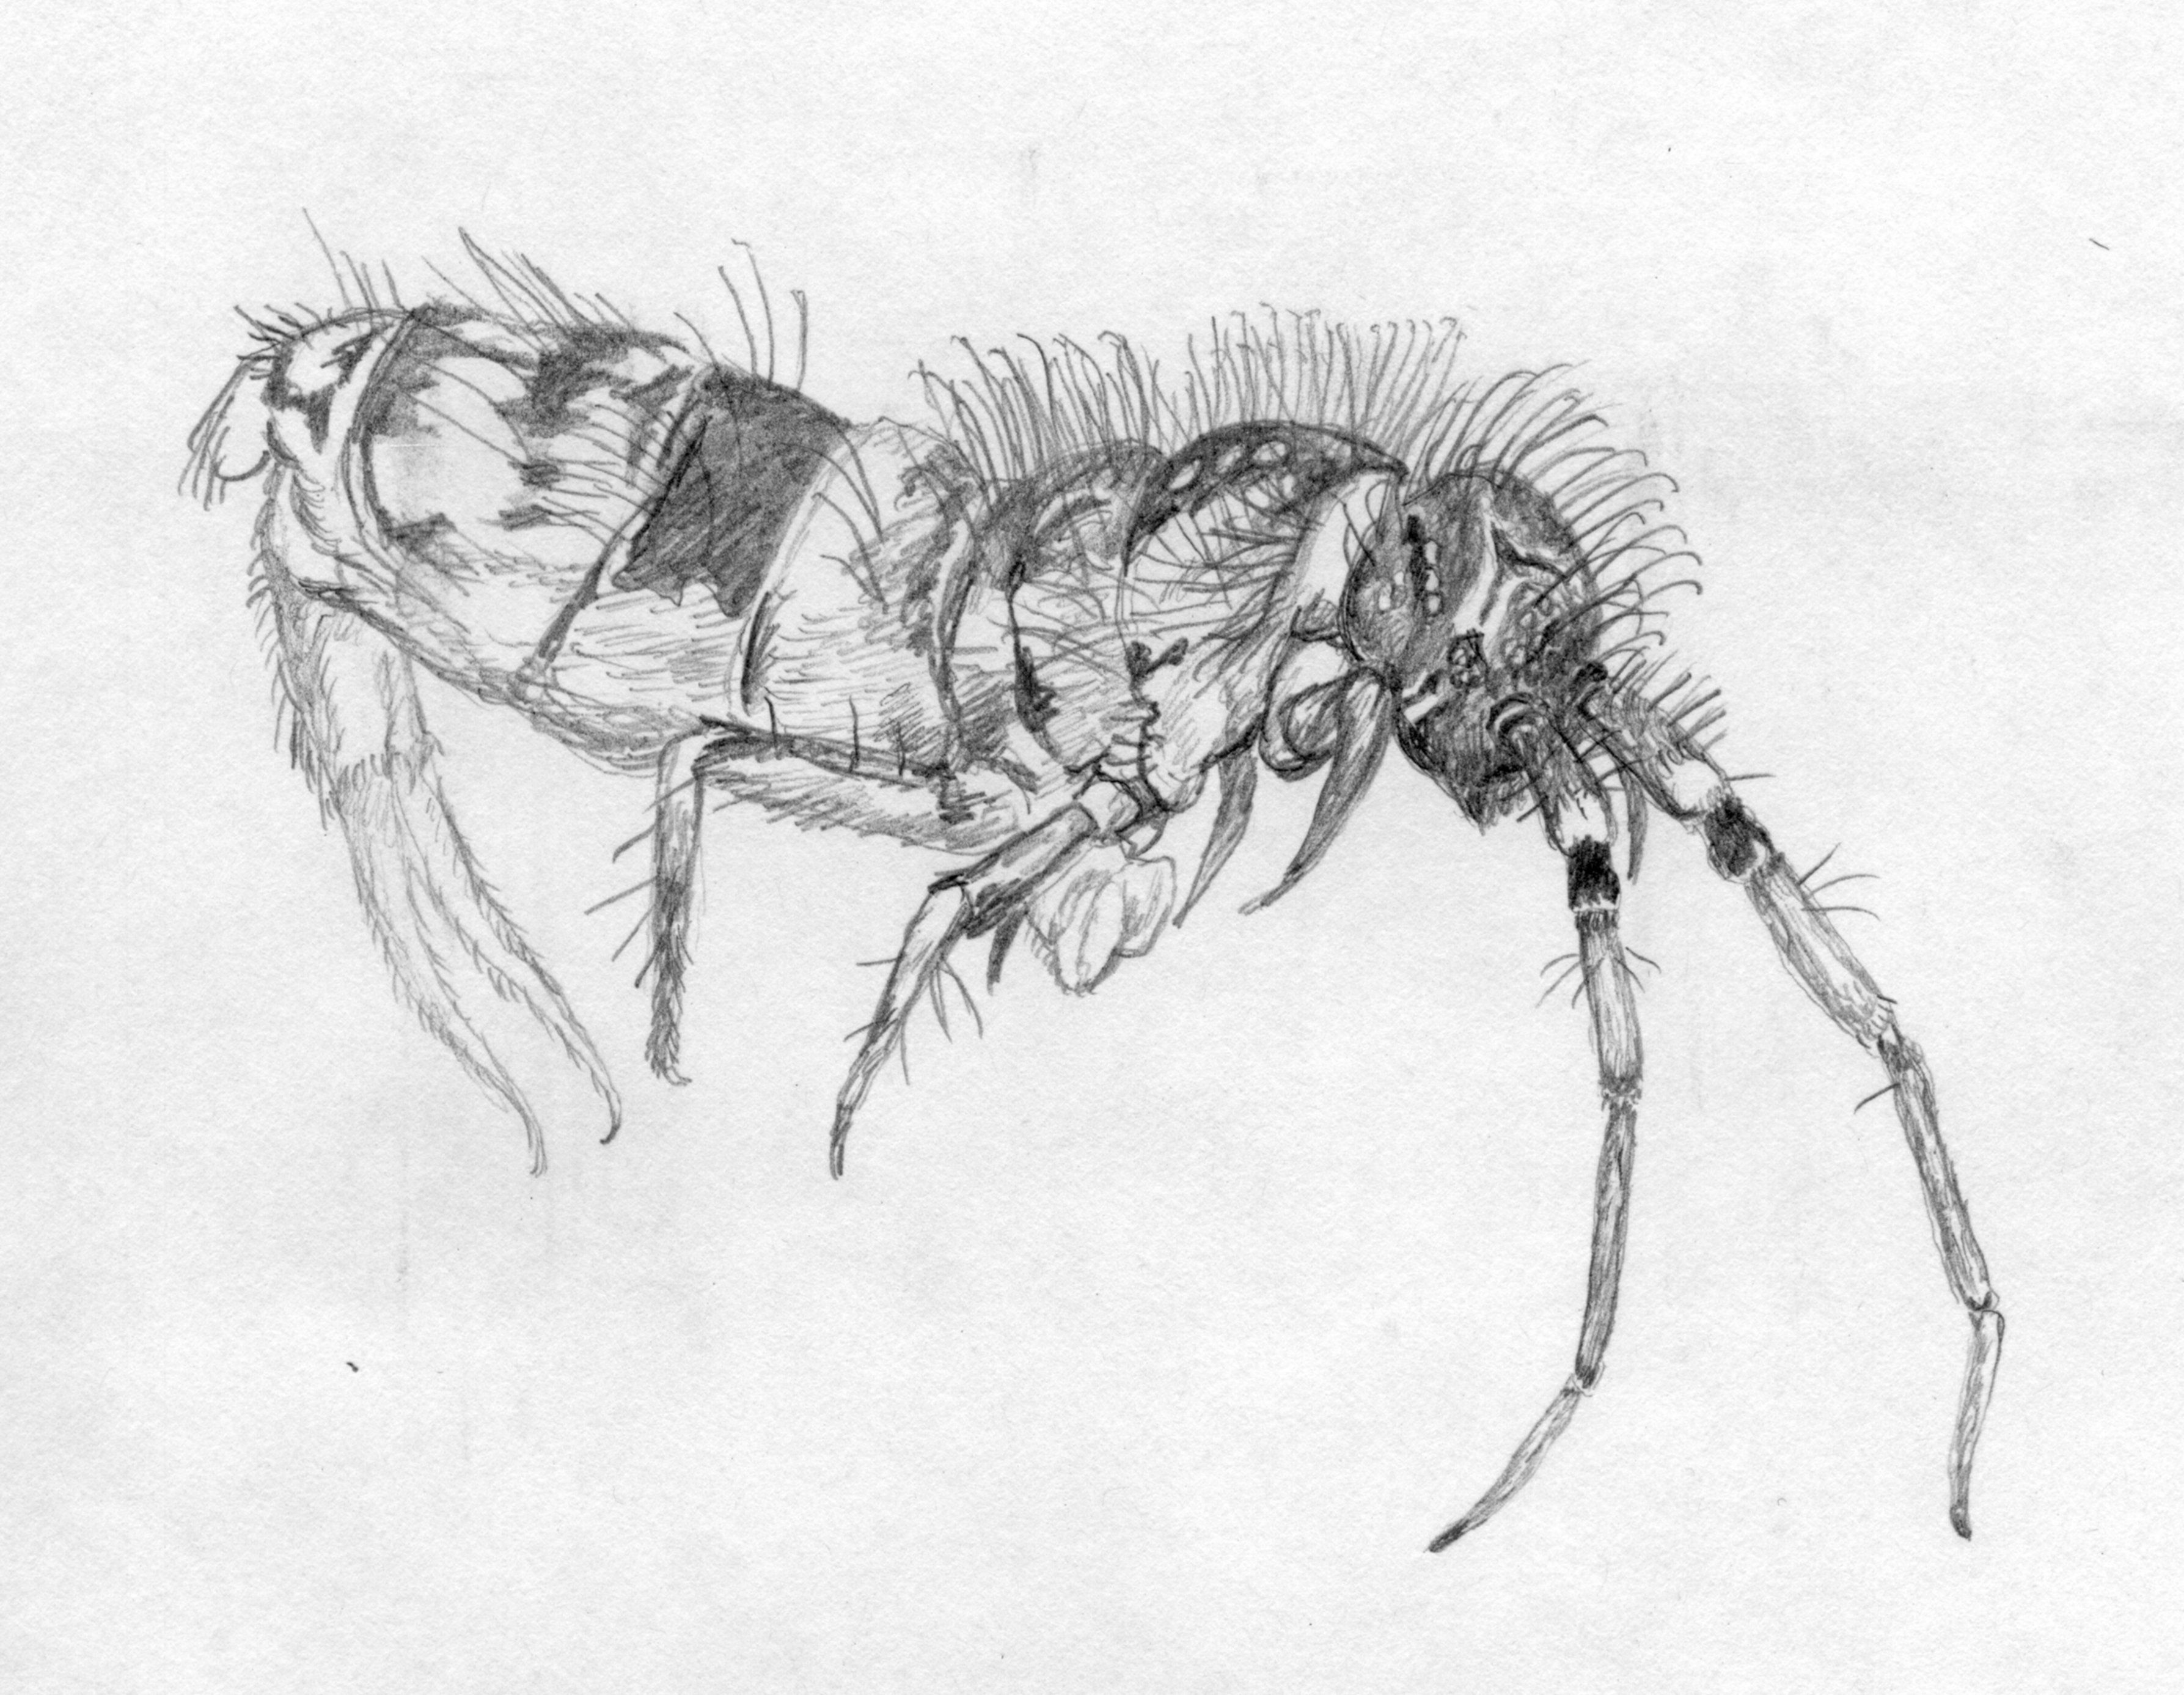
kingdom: Animalia
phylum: Arthropoda
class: Collembola
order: Entomobryomorpha
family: Orchesellidae
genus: Orchesella
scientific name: Orchesella cincta
